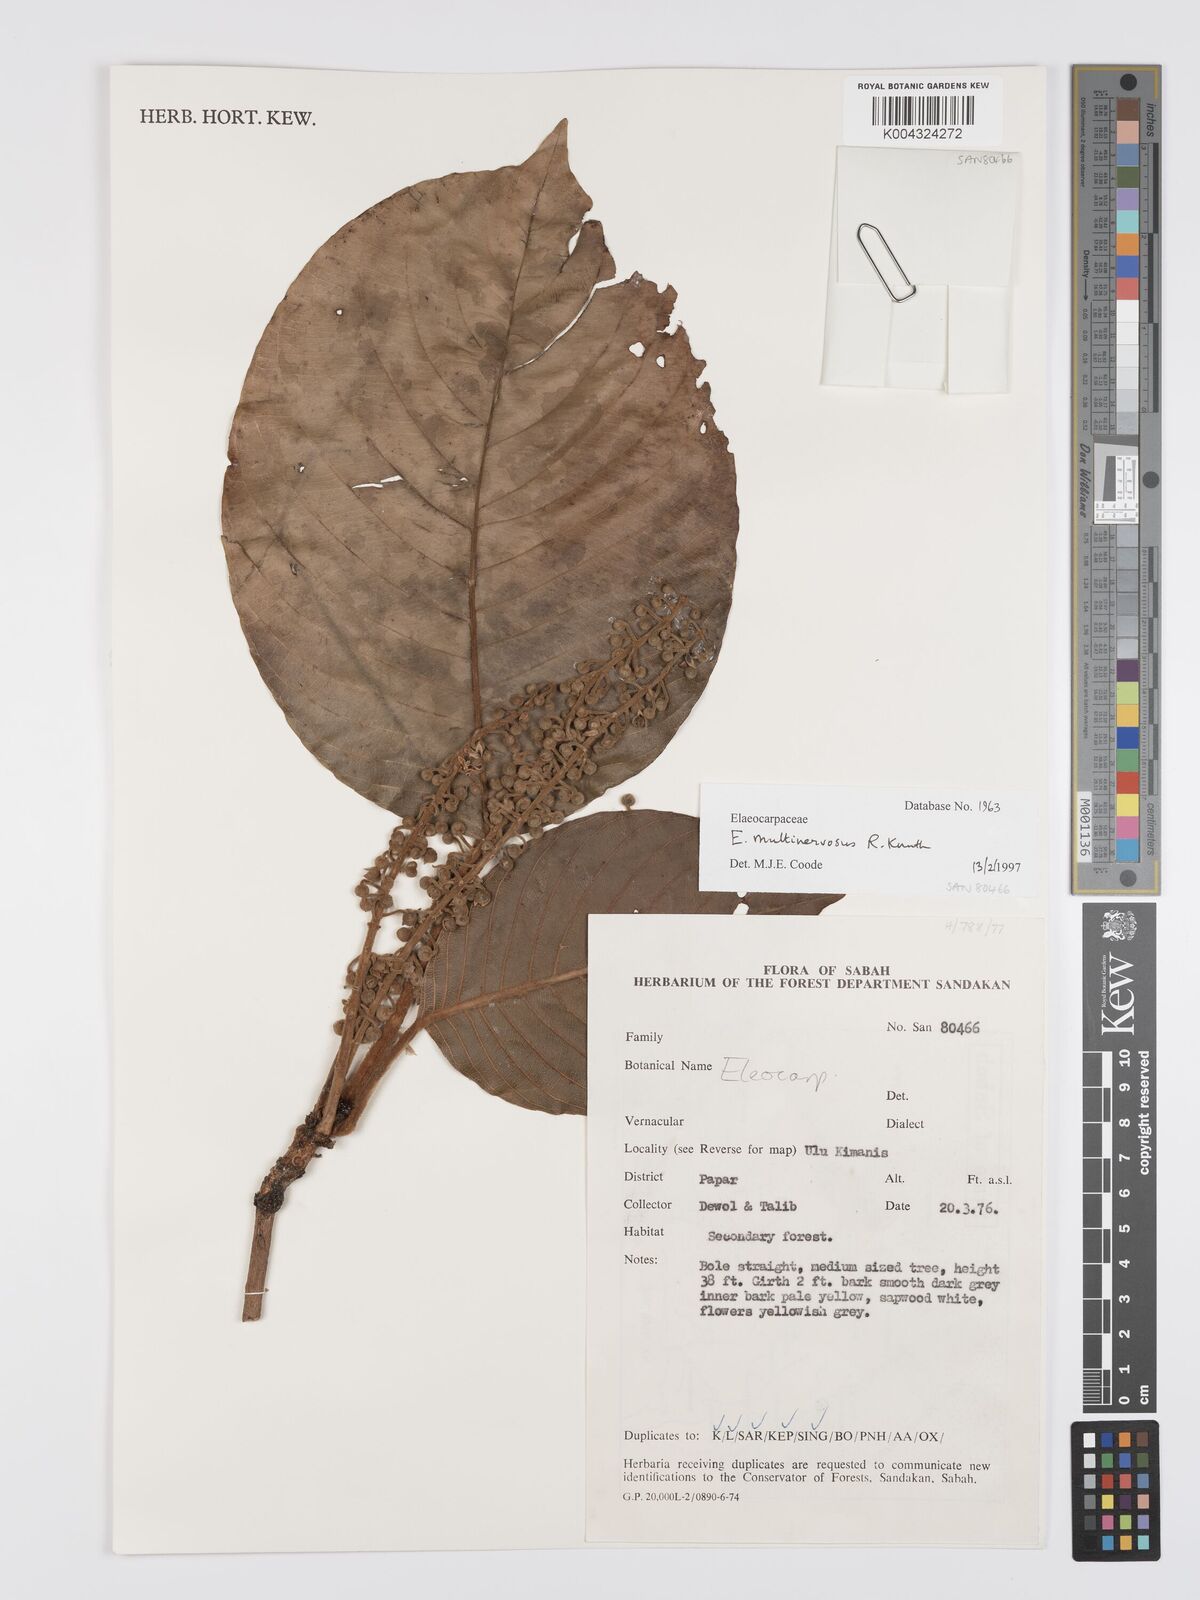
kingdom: Plantae
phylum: Tracheophyta
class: Magnoliopsida
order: Oxalidales
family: Elaeocarpaceae
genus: Elaeocarpus
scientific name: Elaeocarpus multinervosus
